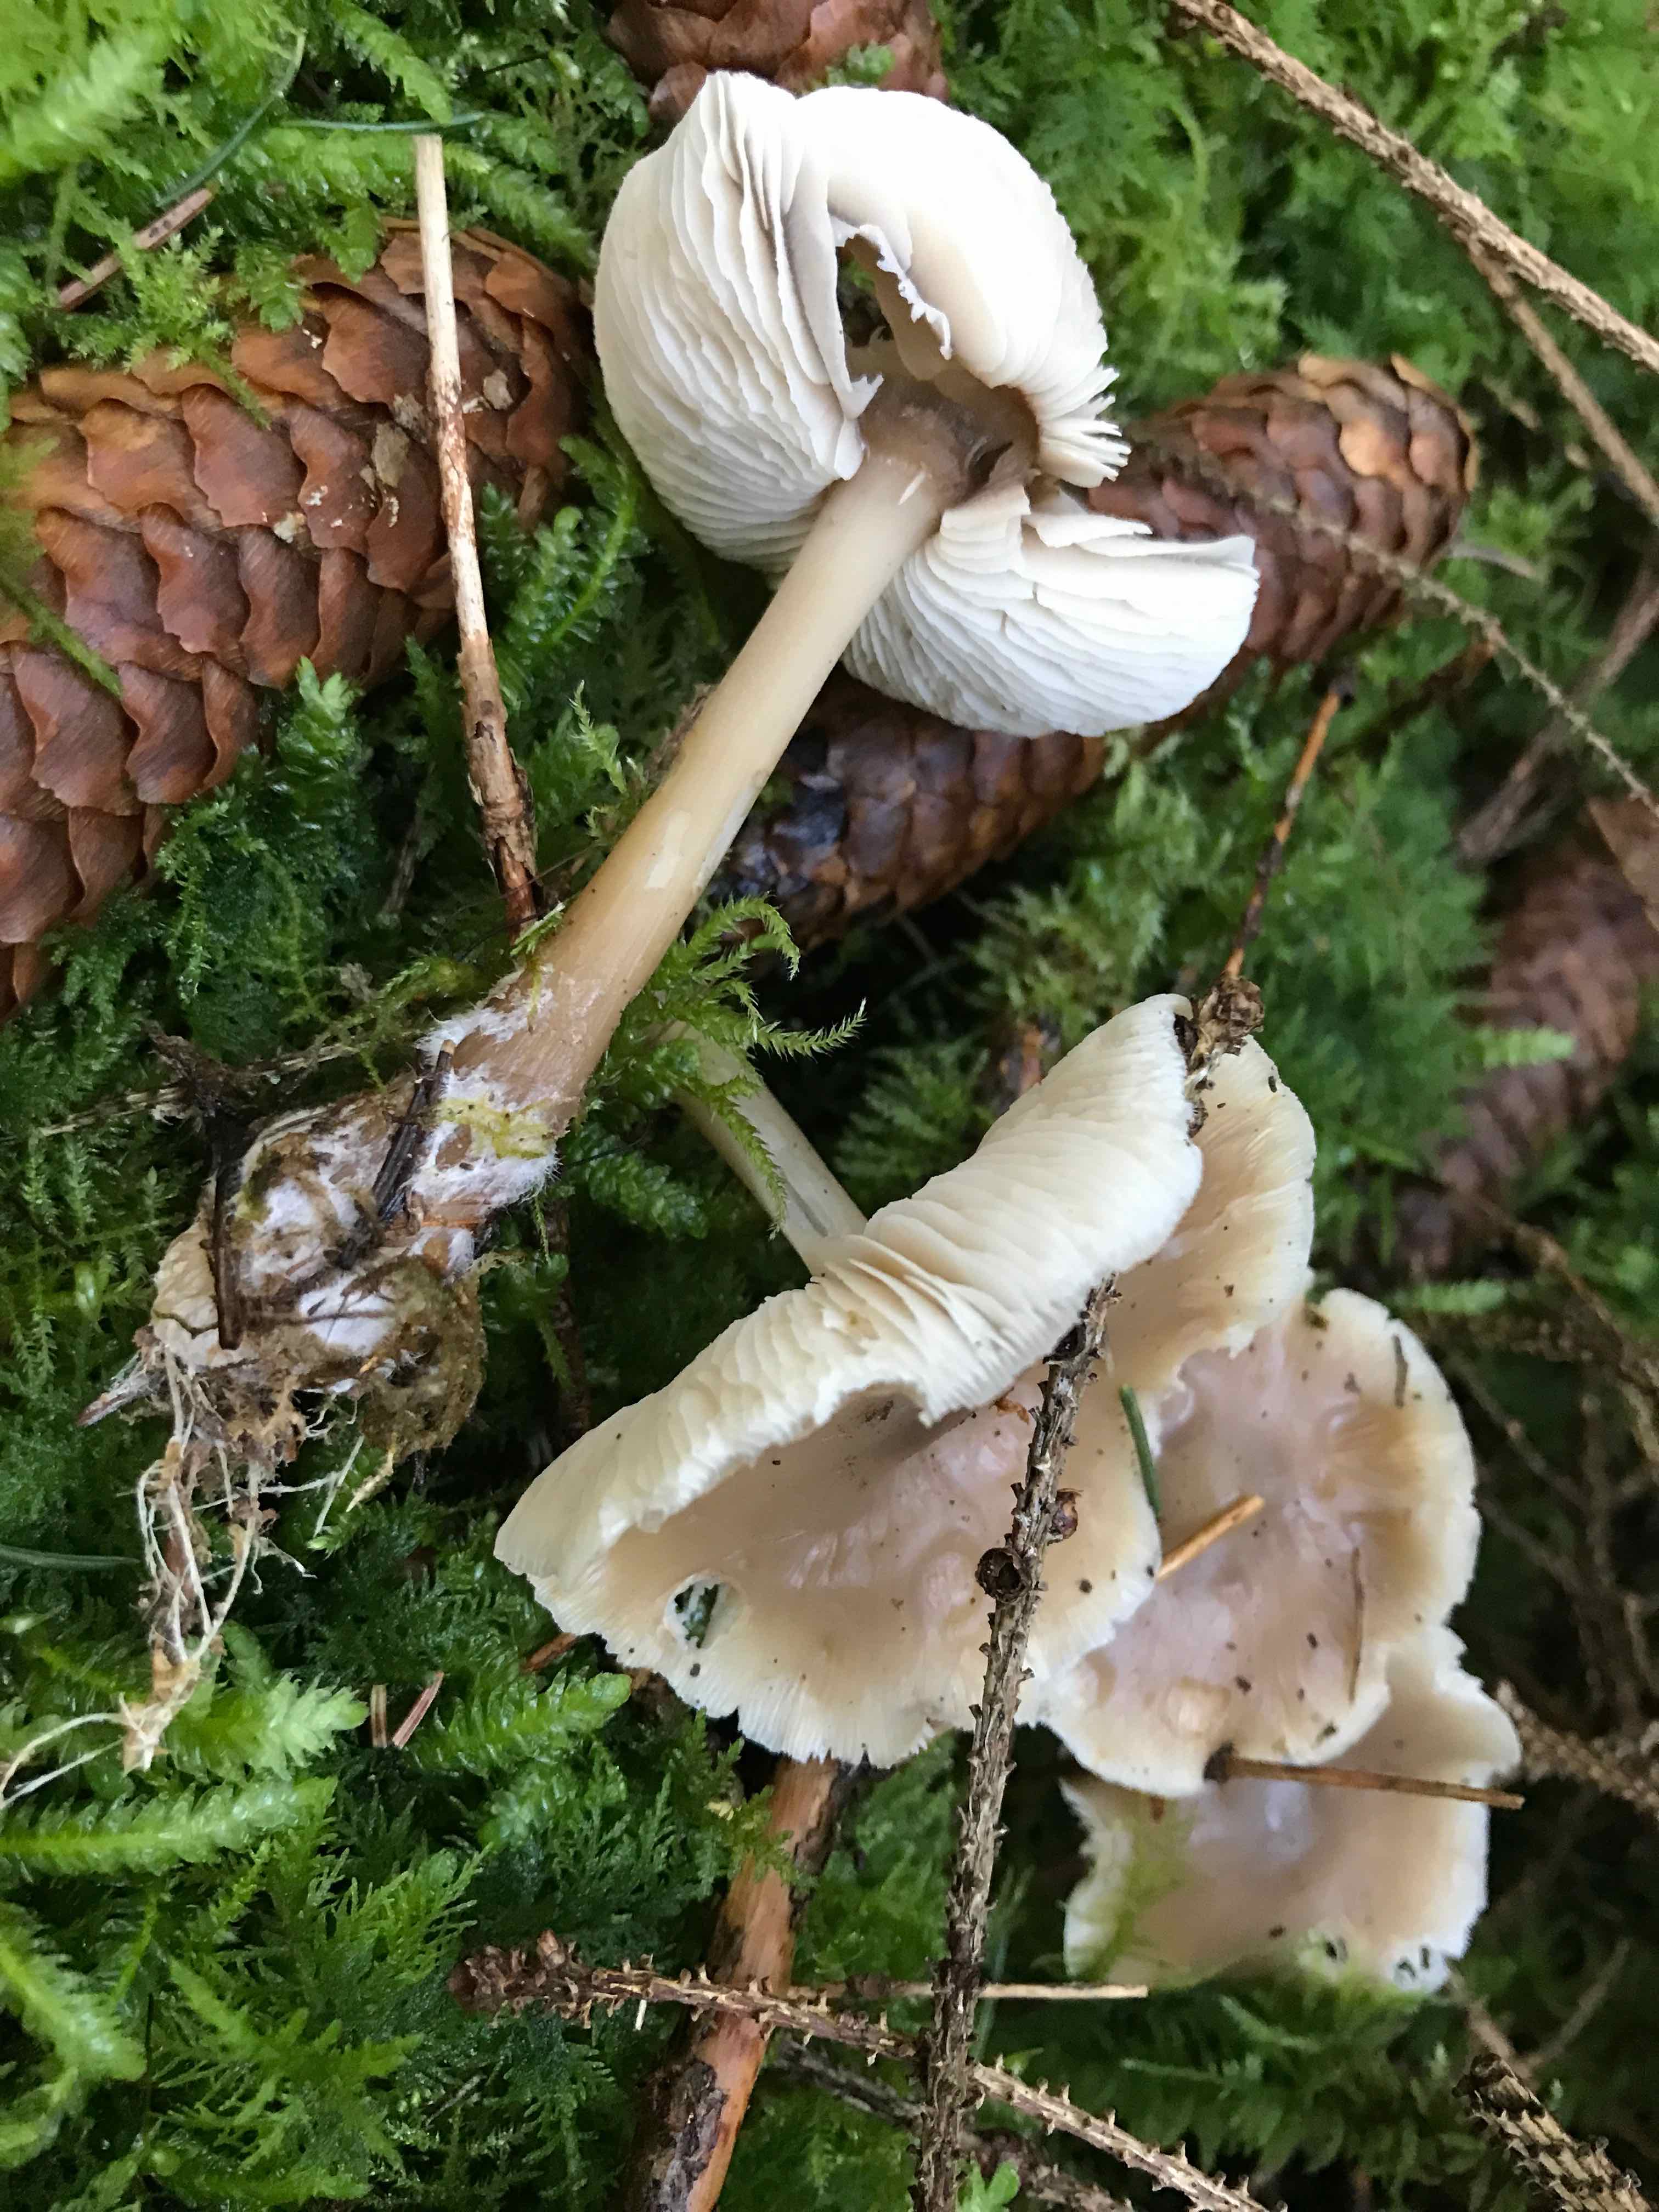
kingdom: Fungi
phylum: Basidiomycota
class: Agaricomycetes
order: Agaricales
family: Omphalotaceae
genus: Rhodocollybia
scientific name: Rhodocollybia asema
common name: horngrå fladhat
